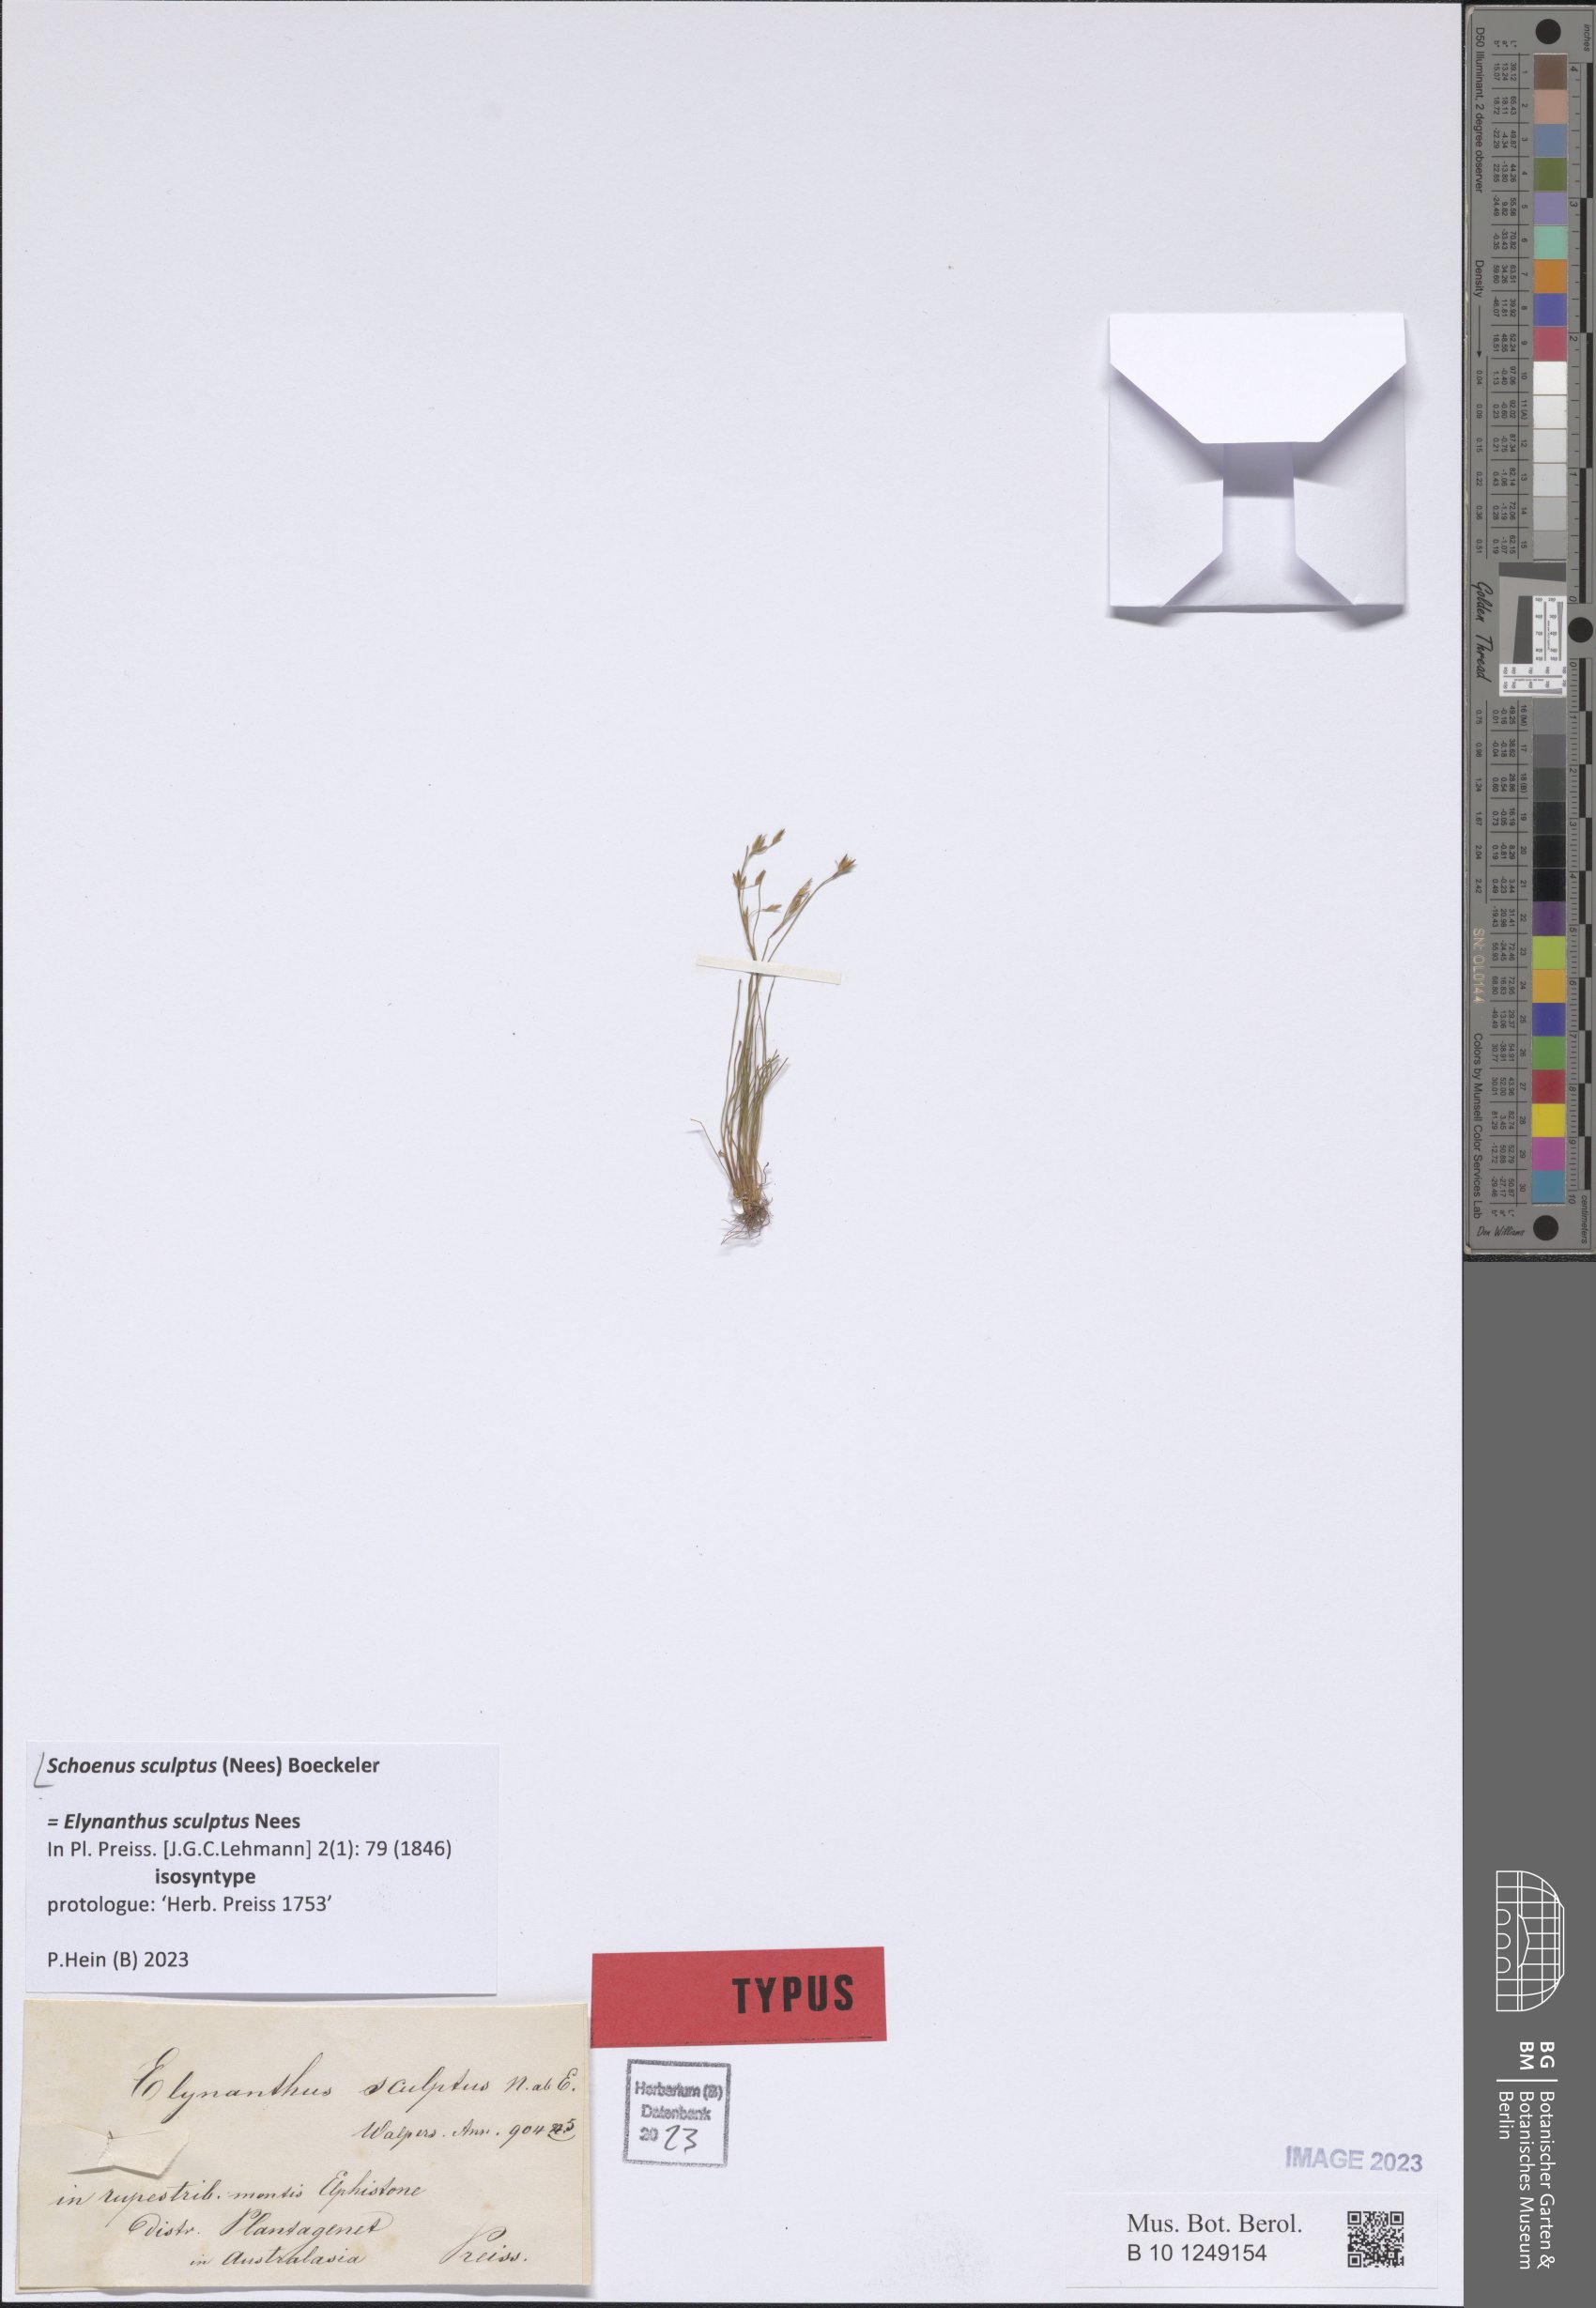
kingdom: Plantae
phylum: Tracheophyta
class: Liliopsida
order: Poales
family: Cyperaceae
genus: Schoenus
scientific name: Schoenus sculptus
